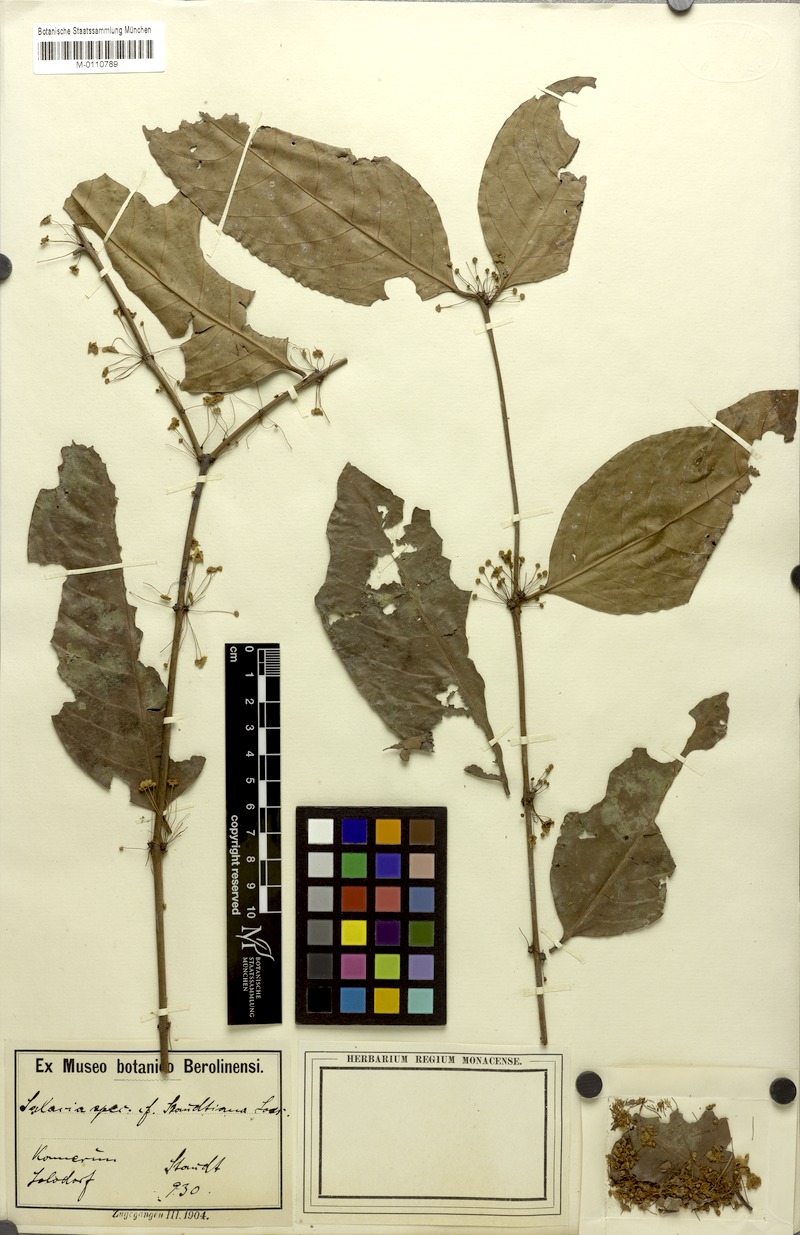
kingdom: Plantae
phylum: Tracheophyta
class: Magnoliopsida
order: Celastrales
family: Celastraceae
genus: Salacia
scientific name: Salacia eurypetala
